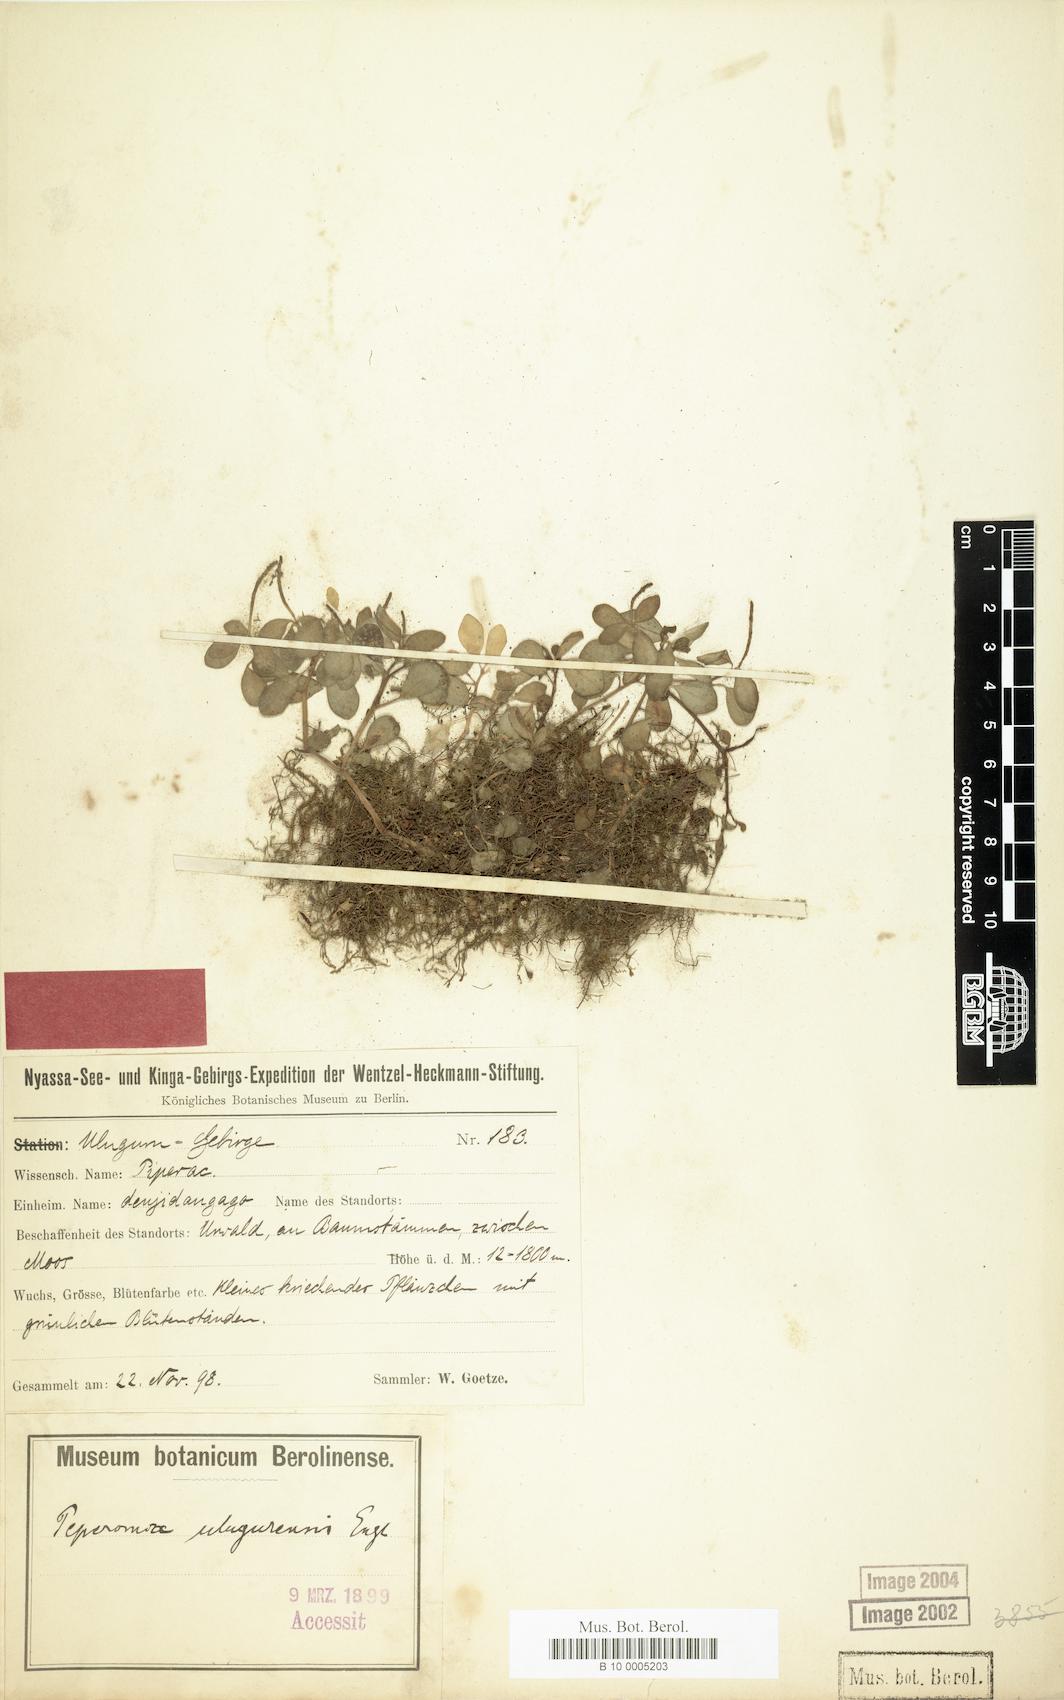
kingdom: Plantae
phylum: Tracheophyta
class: Magnoliopsida
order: Piperales
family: Piperaceae
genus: Peperomia
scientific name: Peperomia retusa
